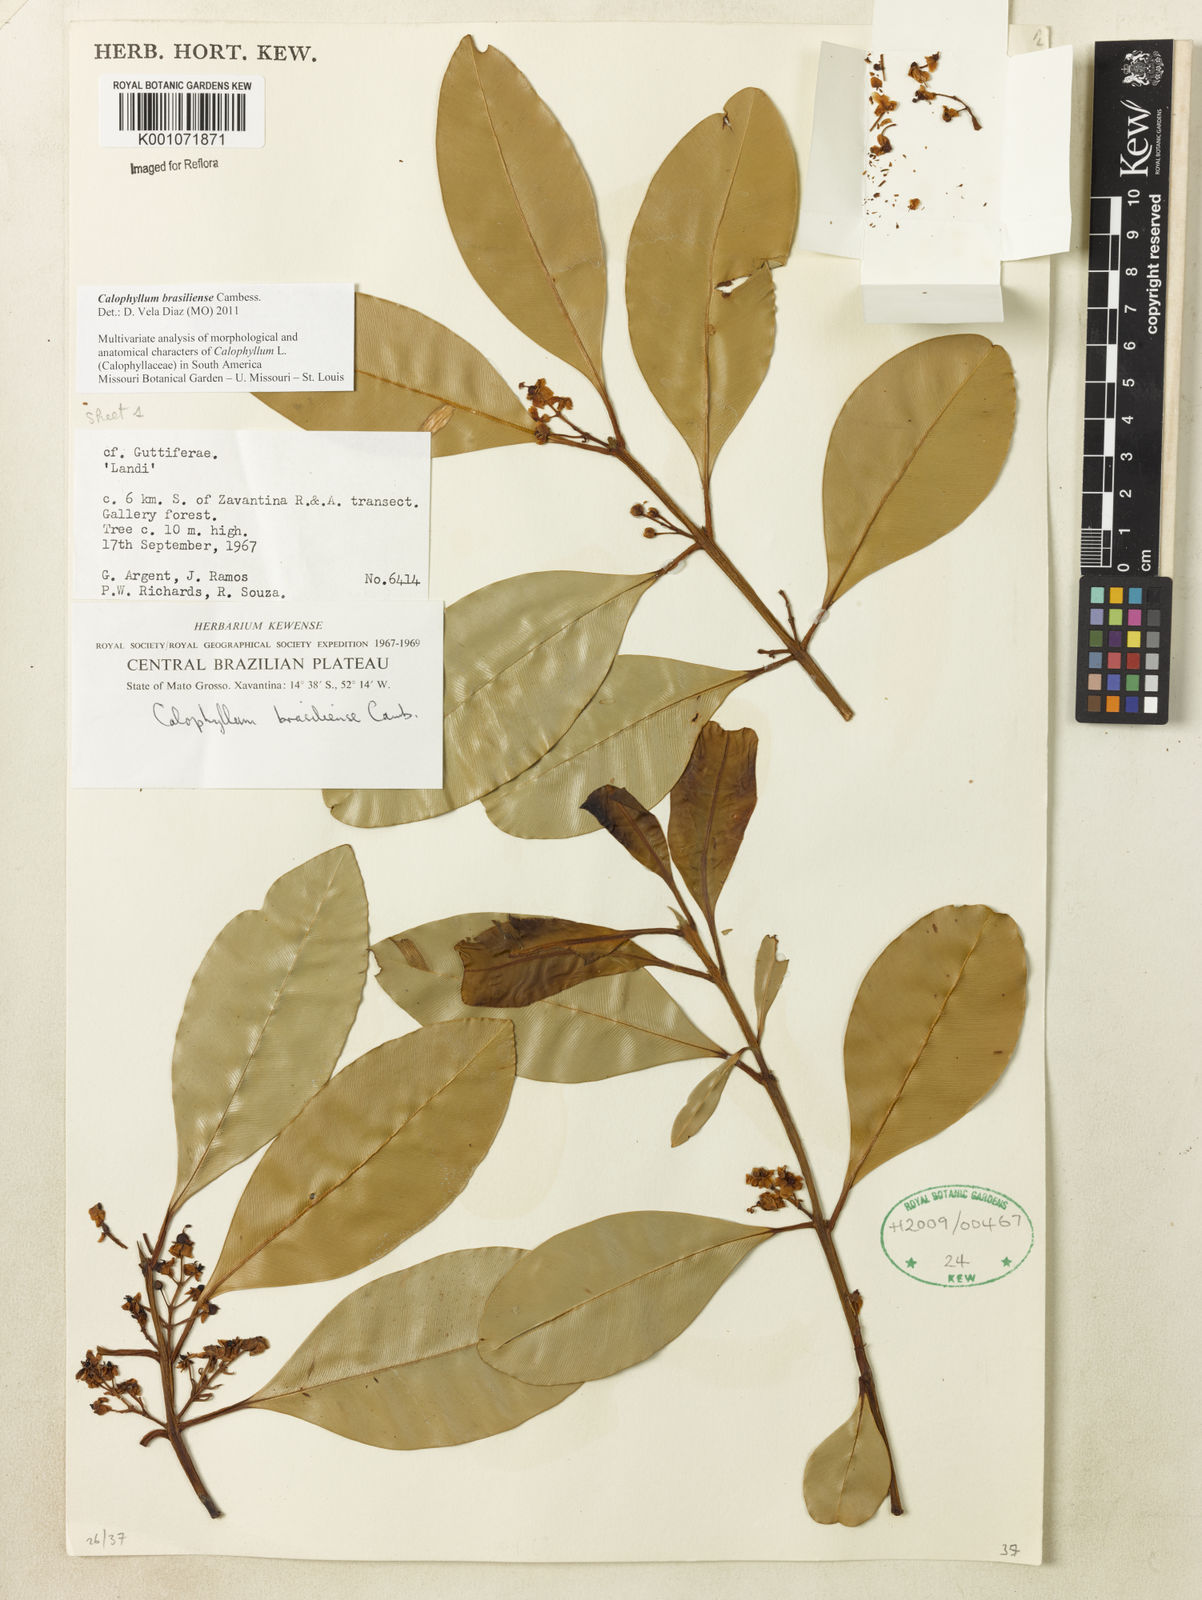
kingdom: Plantae
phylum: Tracheophyta
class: Magnoliopsida
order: Malpighiales
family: Calophyllaceae
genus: Calophyllum
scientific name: Calophyllum brasiliense
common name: Santa maria
